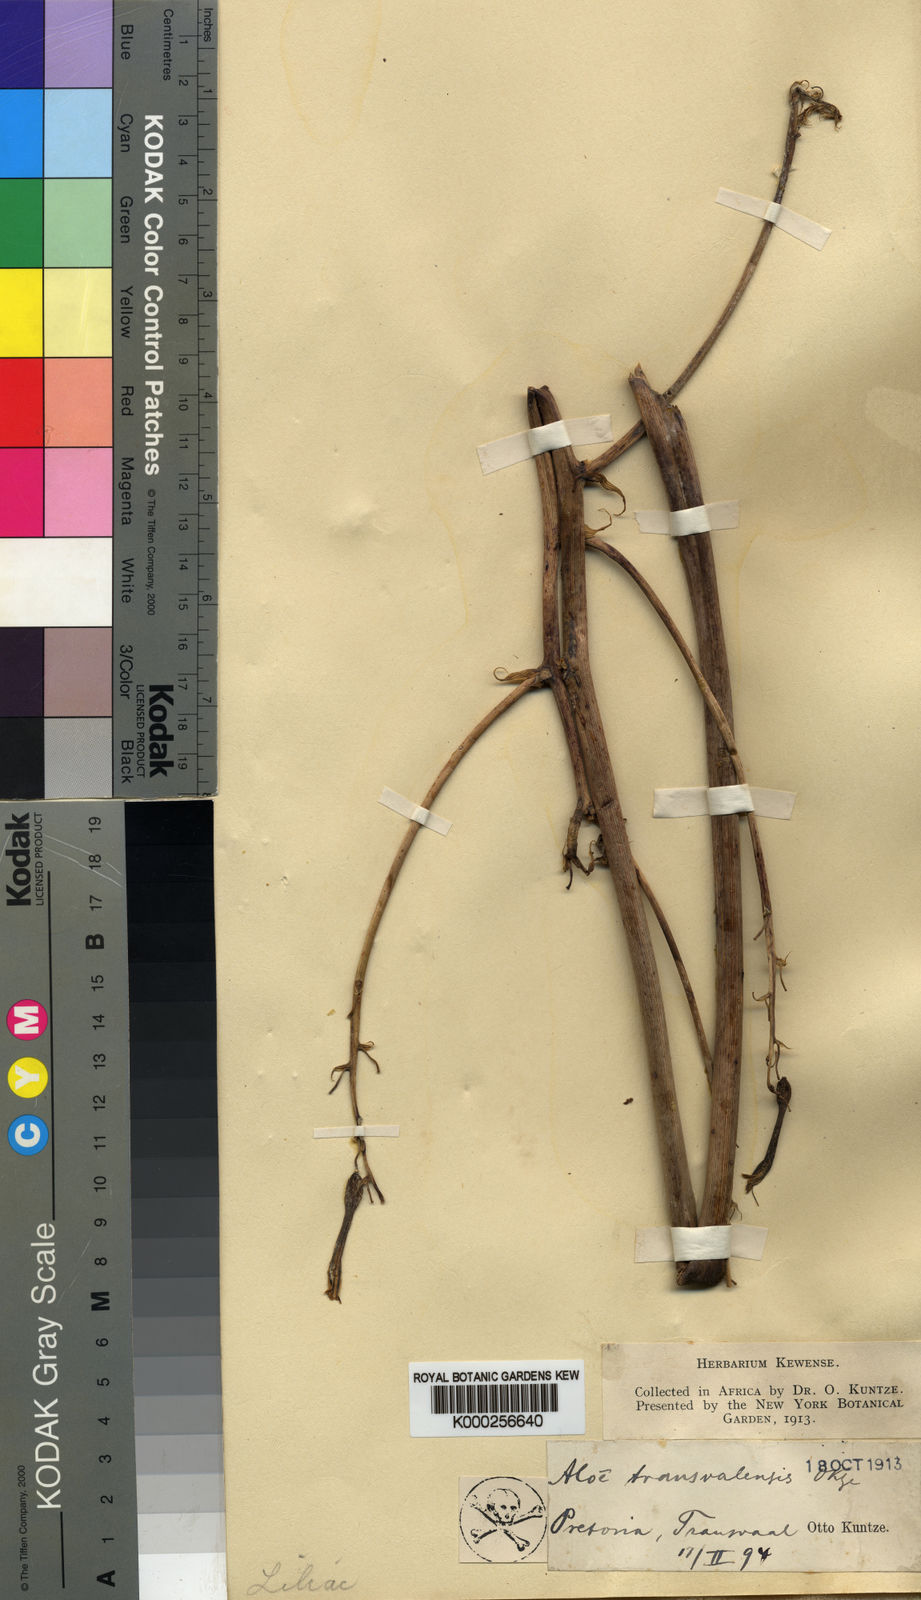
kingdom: Plantae
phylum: Tracheophyta
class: Liliopsida
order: Asparagales
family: Asphodelaceae
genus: Aloe
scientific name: Aloe transvaalensis
